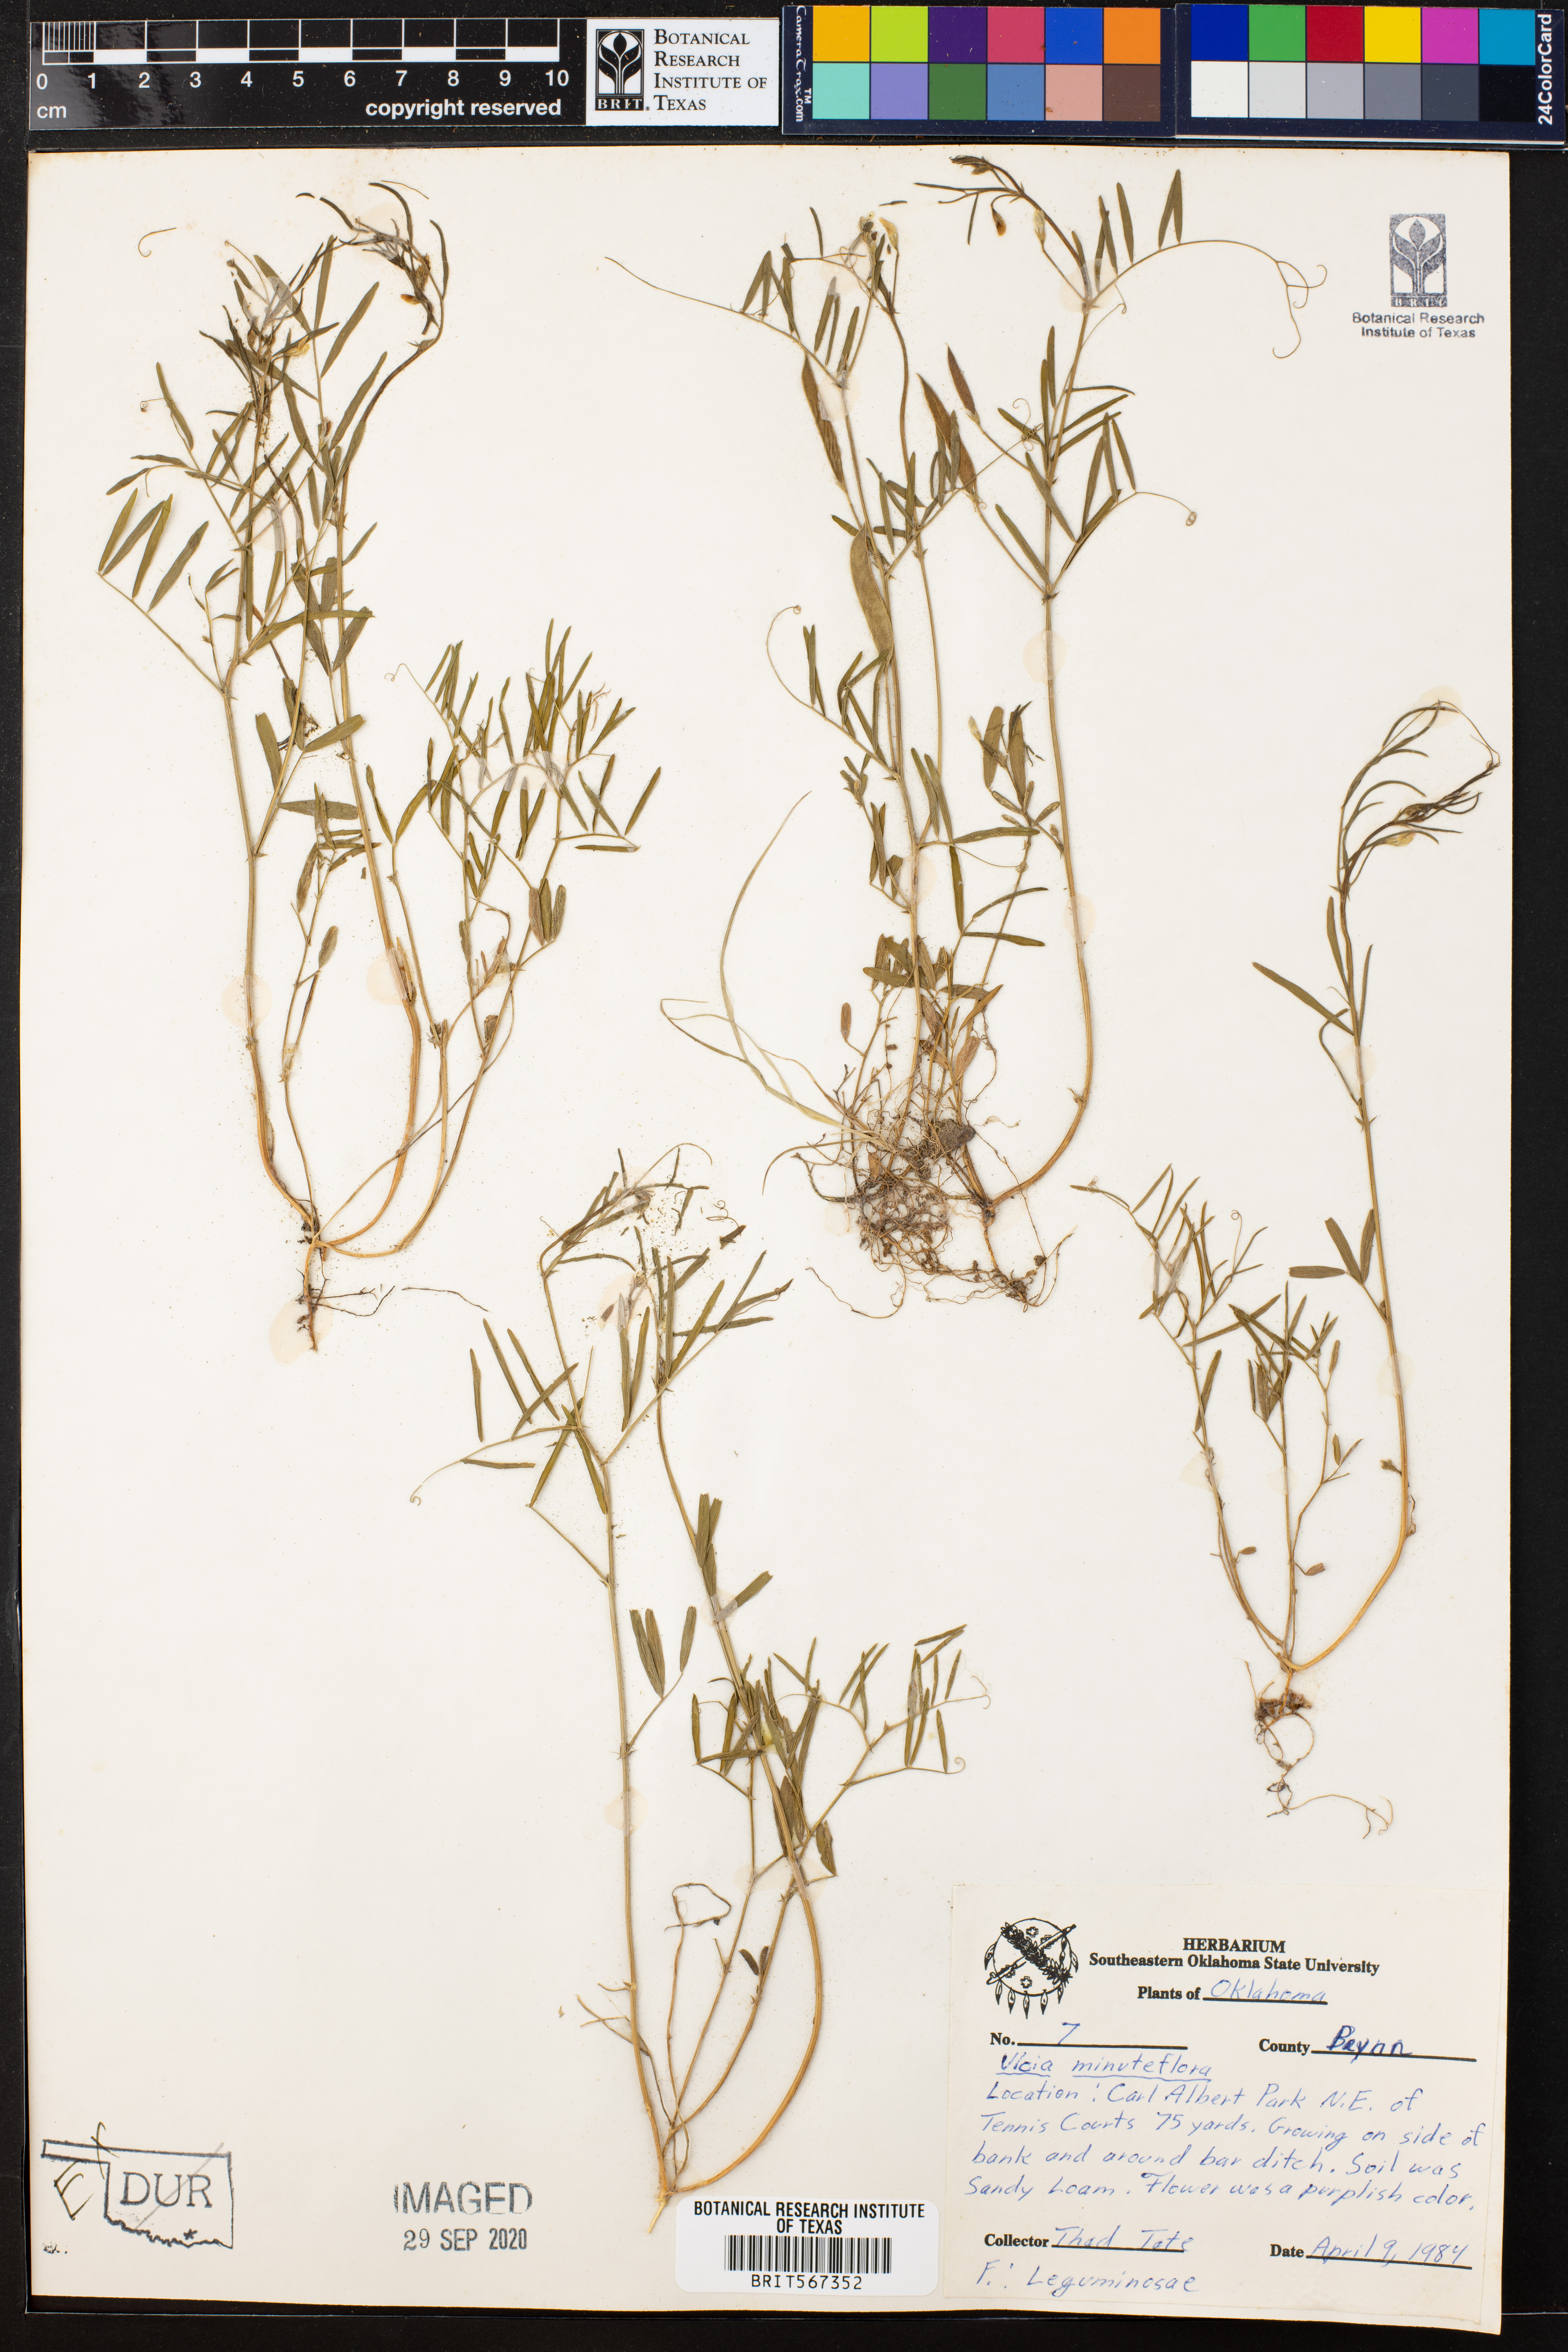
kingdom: Plantae
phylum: Tracheophyta
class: Magnoliopsida
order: Fabales
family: Fabaceae
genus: Vicia
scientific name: Vicia minutiflora
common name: Pygmy-flower vetch
